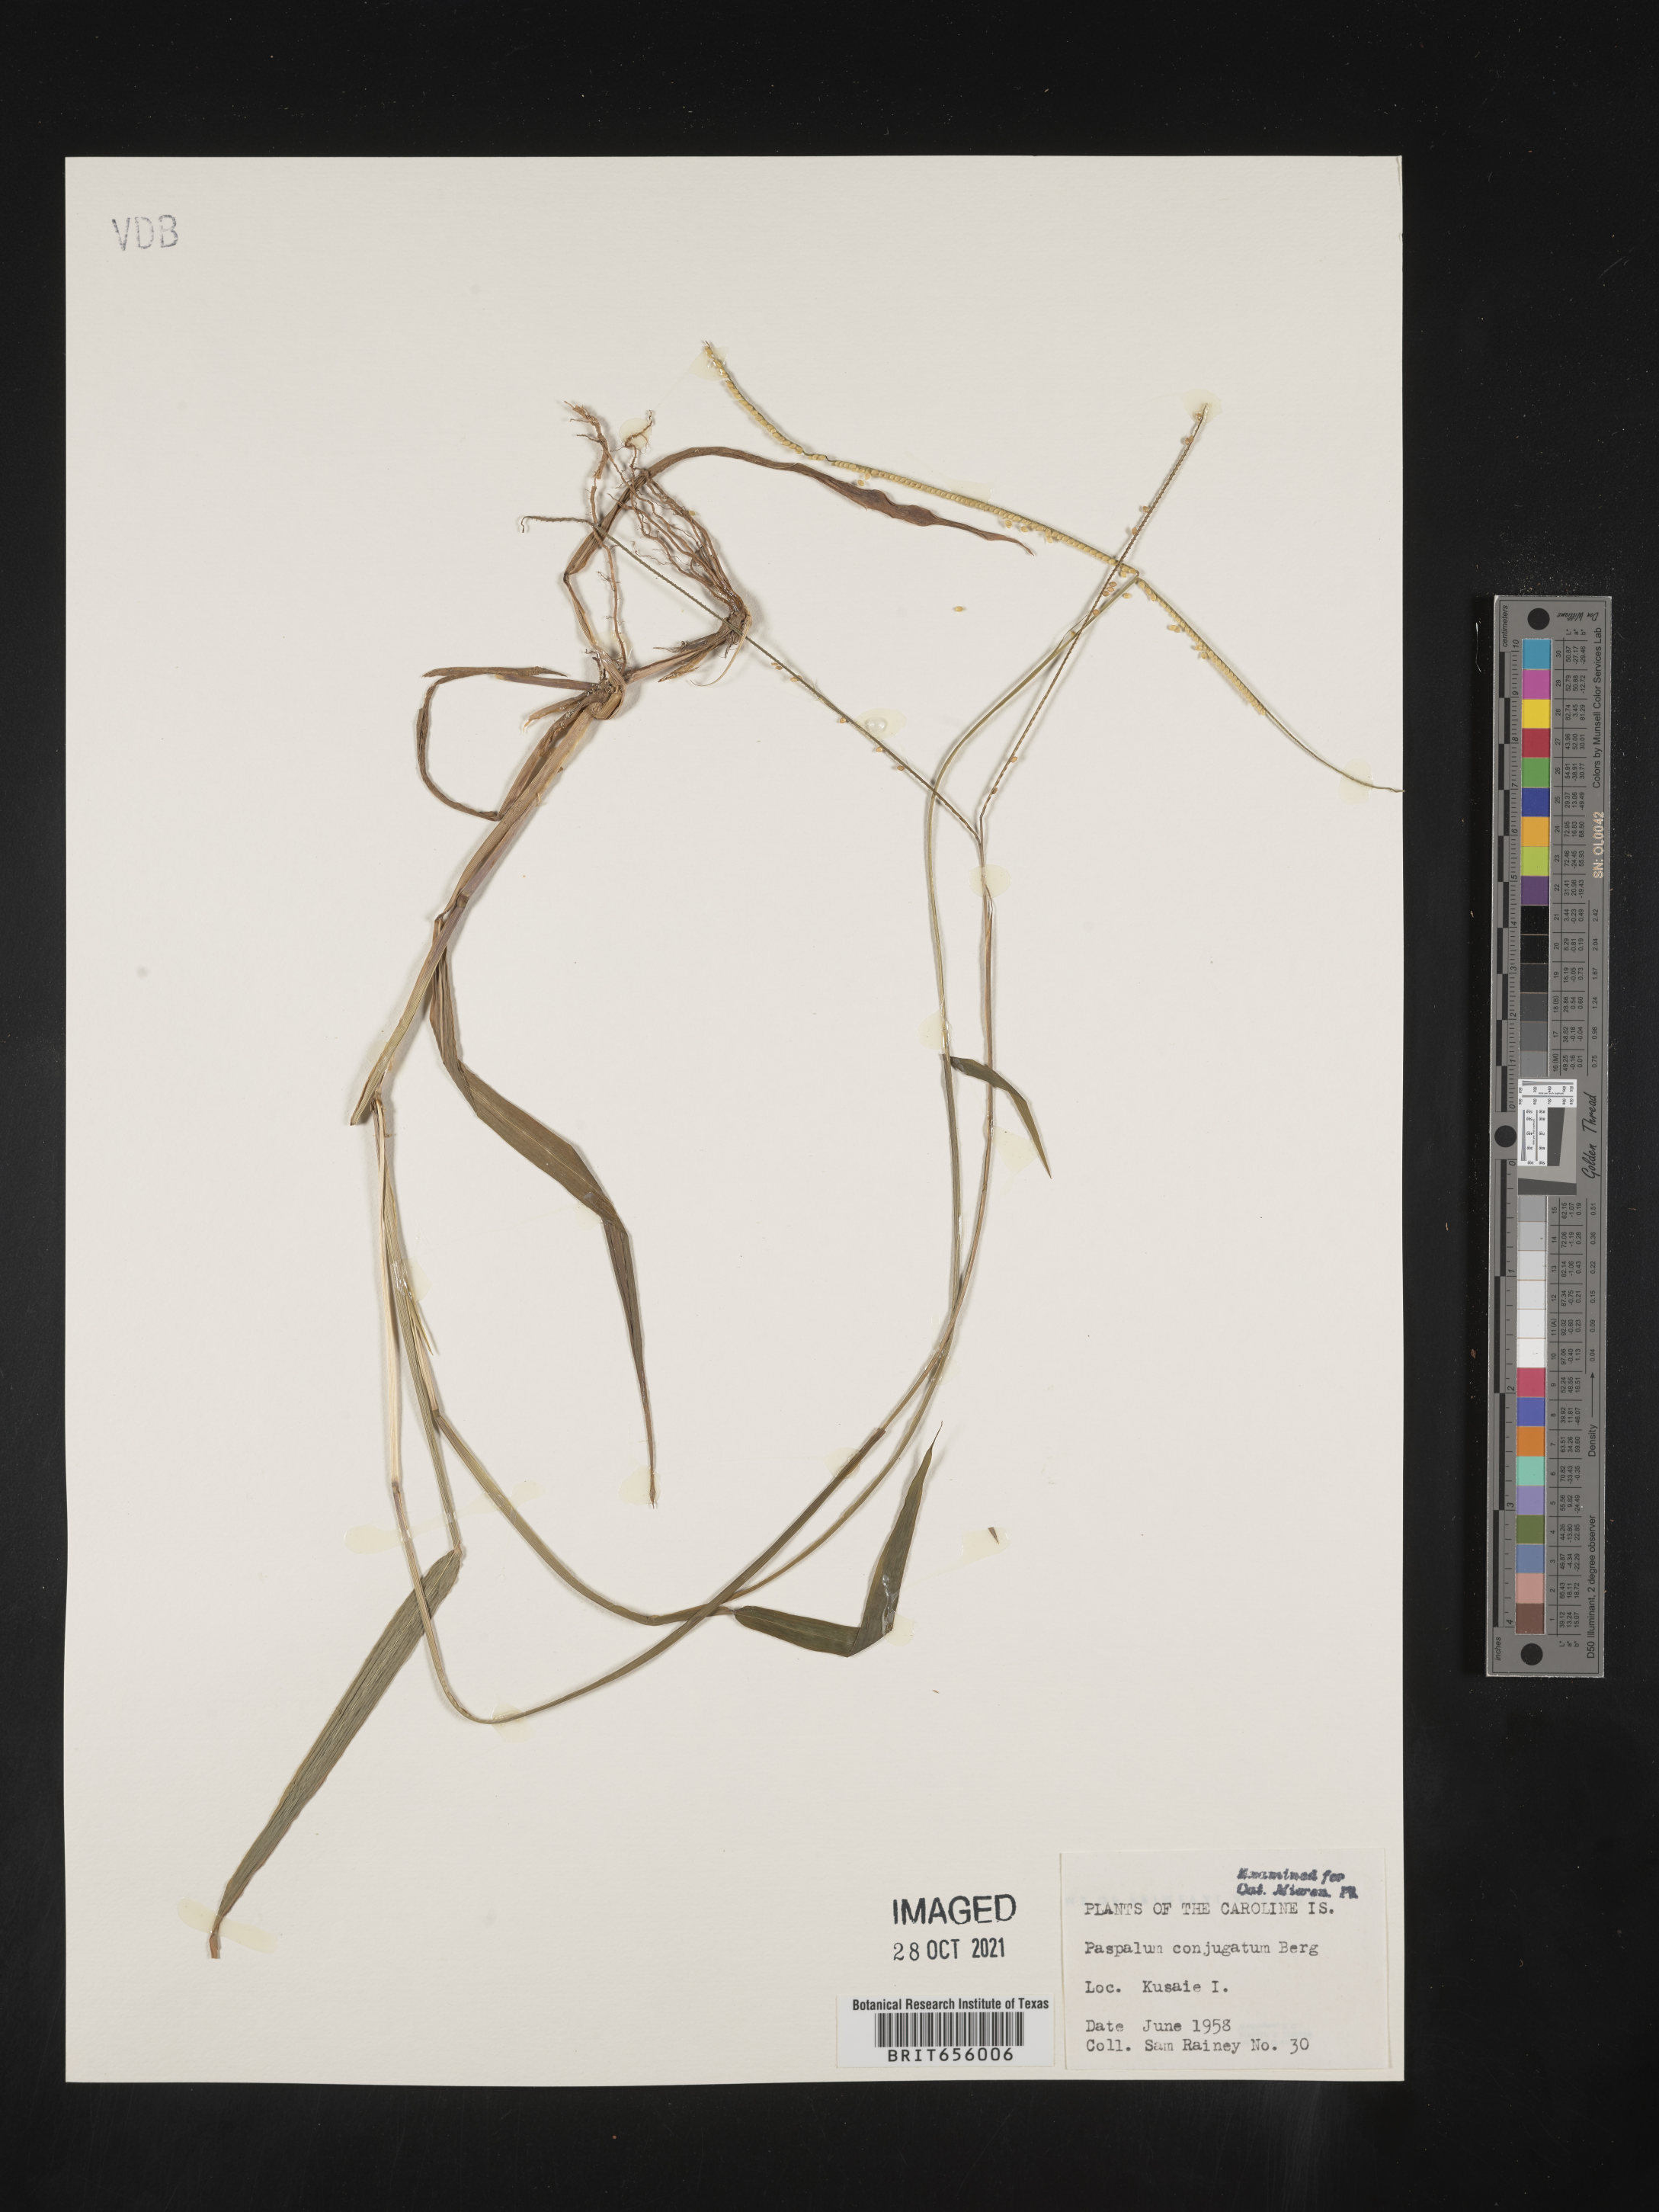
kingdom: Plantae
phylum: Tracheophyta
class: Liliopsida
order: Poales
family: Poaceae
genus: Paspalum
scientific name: Paspalum
